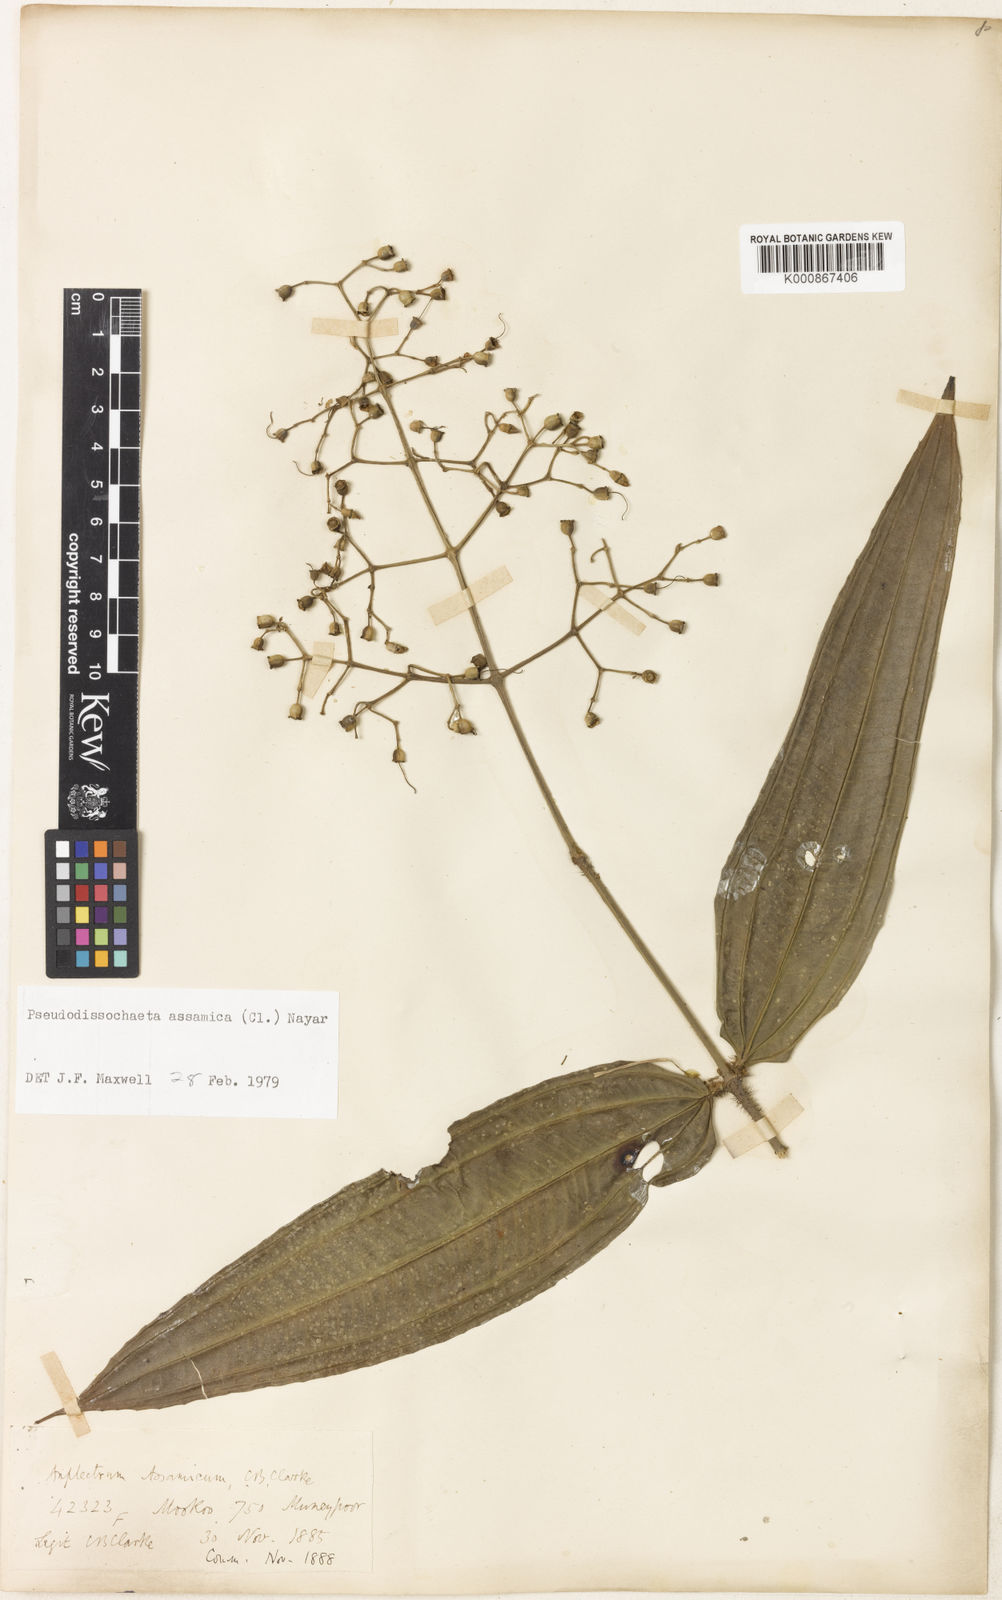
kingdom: Plantae
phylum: Tracheophyta
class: Magnoliopsida
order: Myrtales
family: Melastomataceae
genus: Pseudodissochaeta
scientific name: Pseudodissochaeta assamica
